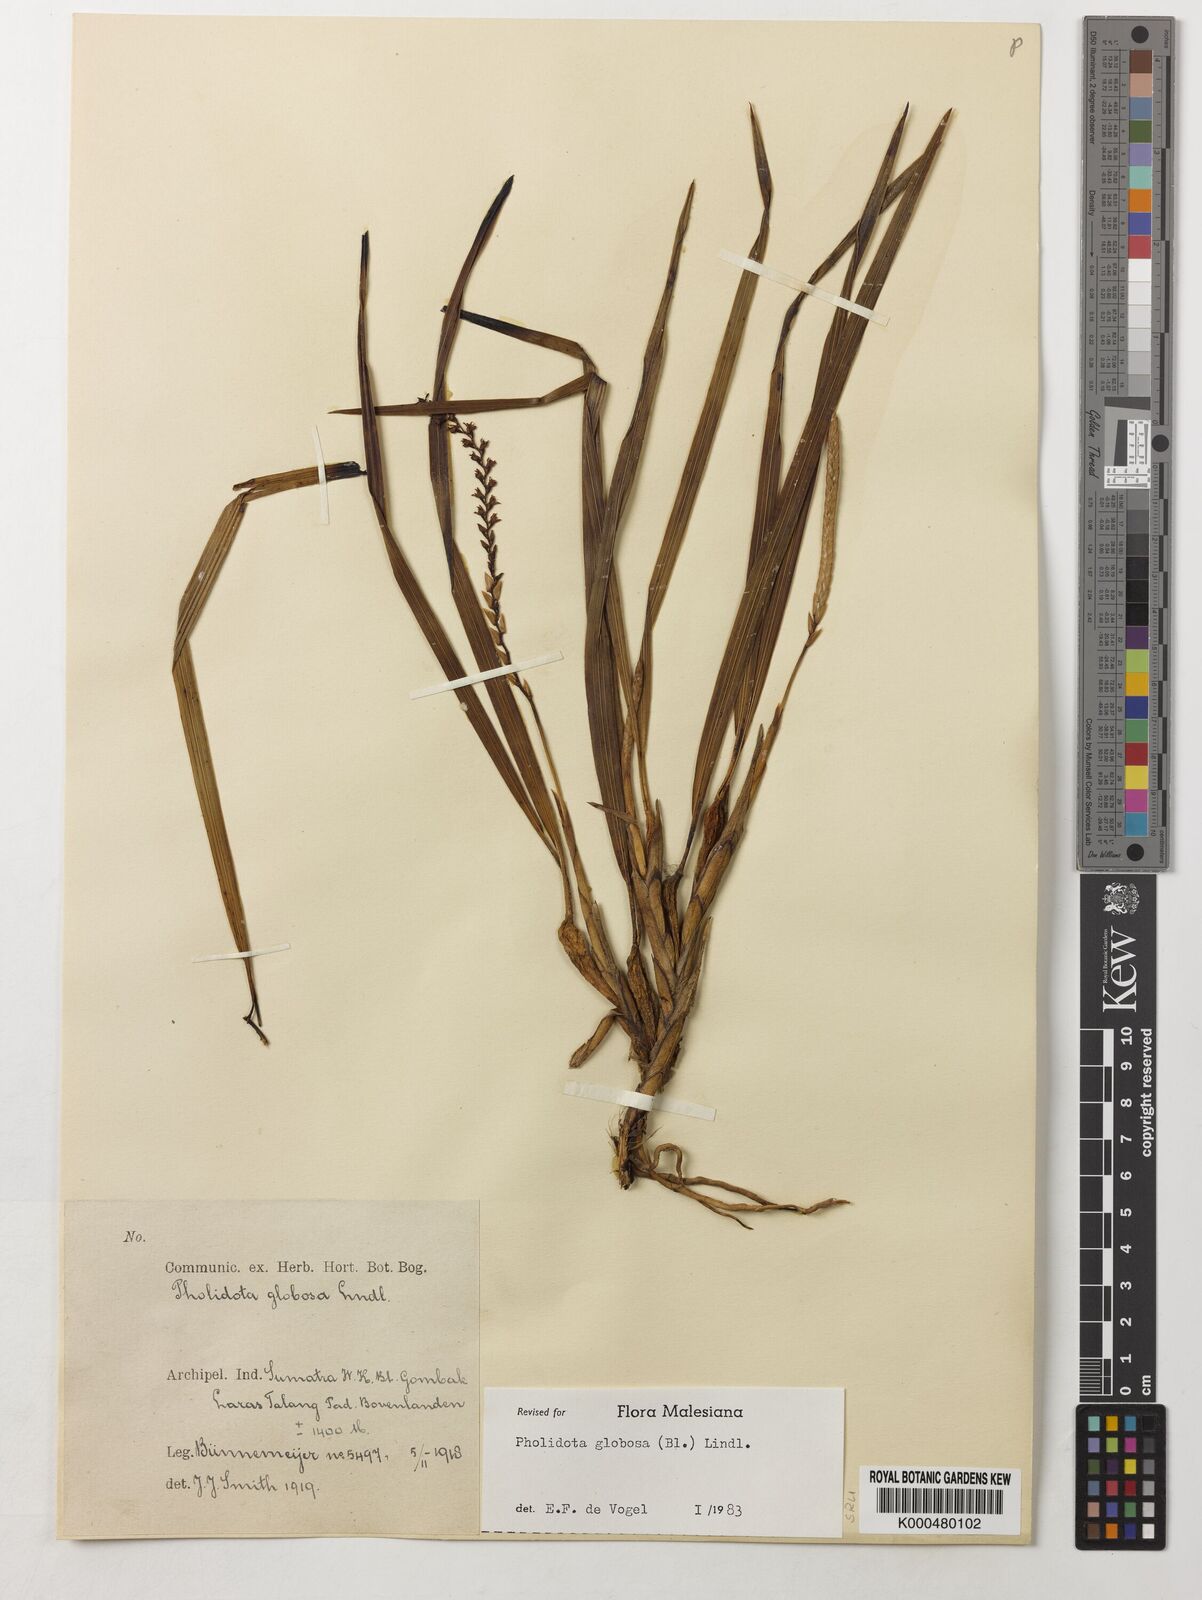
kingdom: Plantae
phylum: Tracheophyta
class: Liliopsida
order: Asparagales
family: Orchidaceae
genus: Coelogyne
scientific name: Coelogyne globosa
